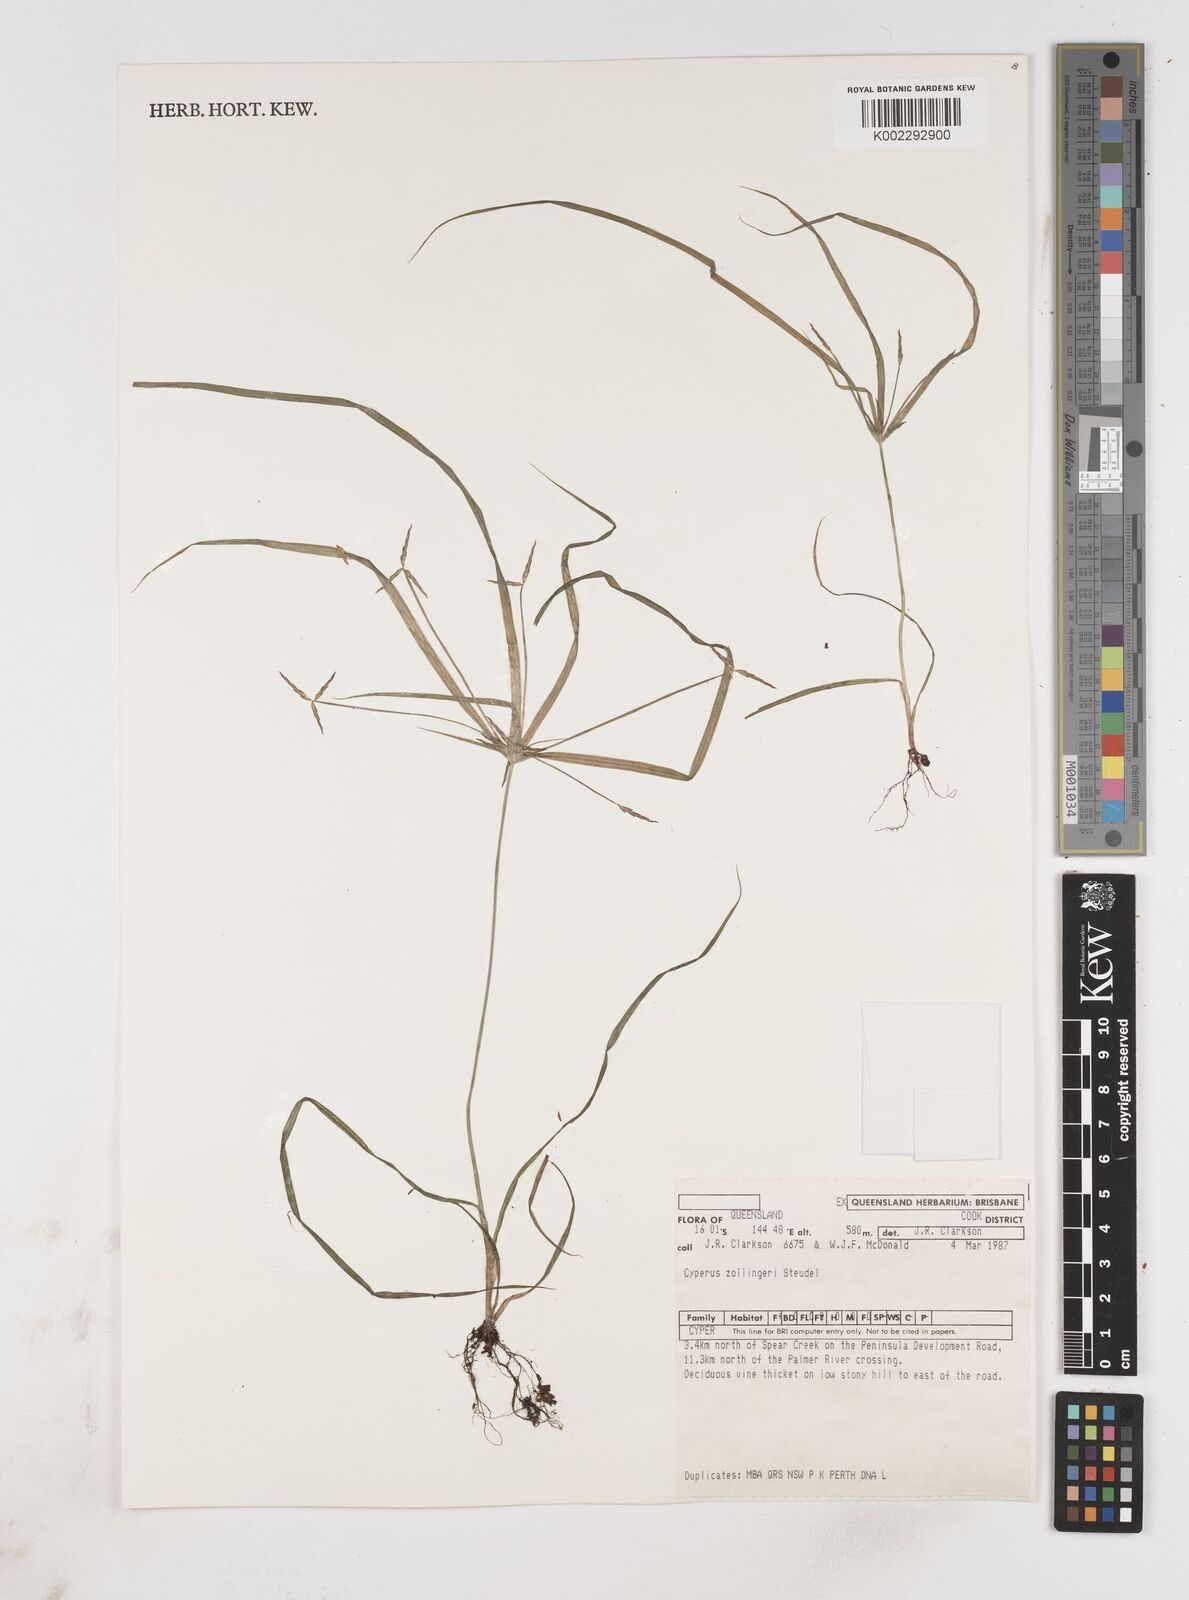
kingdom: Plantae
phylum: Tracheophyta
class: Liliopsida
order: Poales
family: Cyperaceae
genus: Cyperus
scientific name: Cyperus zollingeri
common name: Roadside flatsedge
